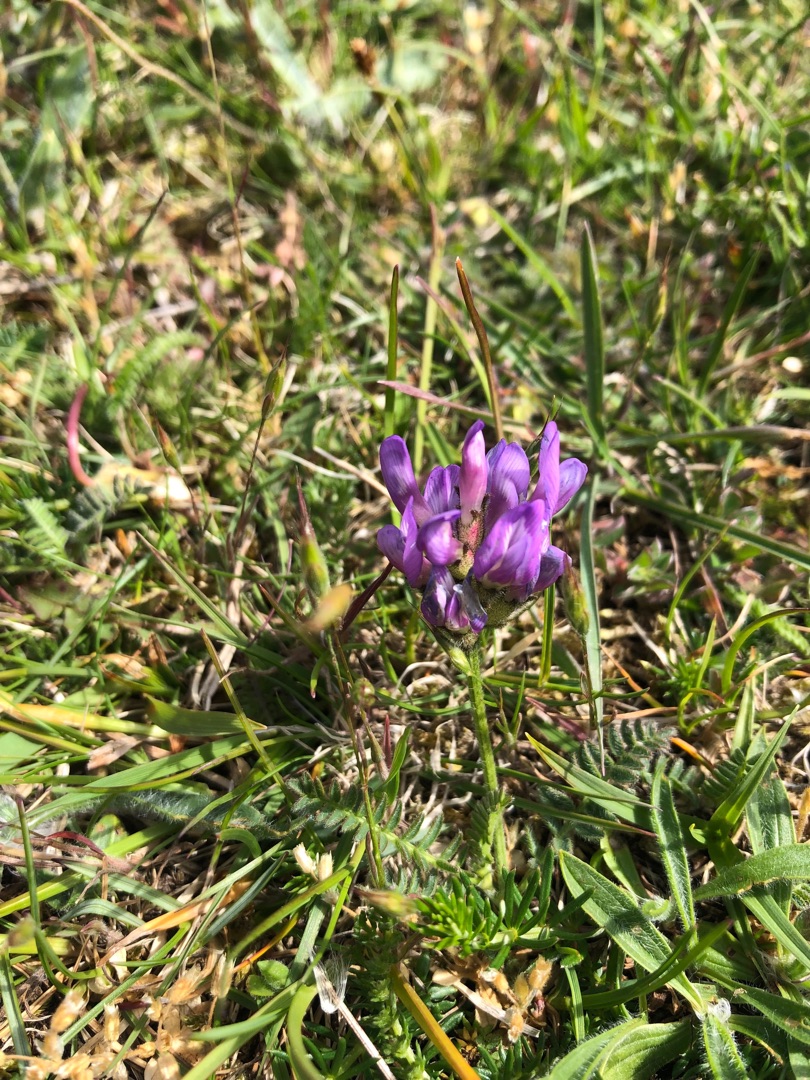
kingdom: Plantae
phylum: Tracheophyta
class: Magnoliopsida
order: Fabales
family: Fabaceae
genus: Astragalus
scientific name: Astragalus danicus
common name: Dansk astragel
